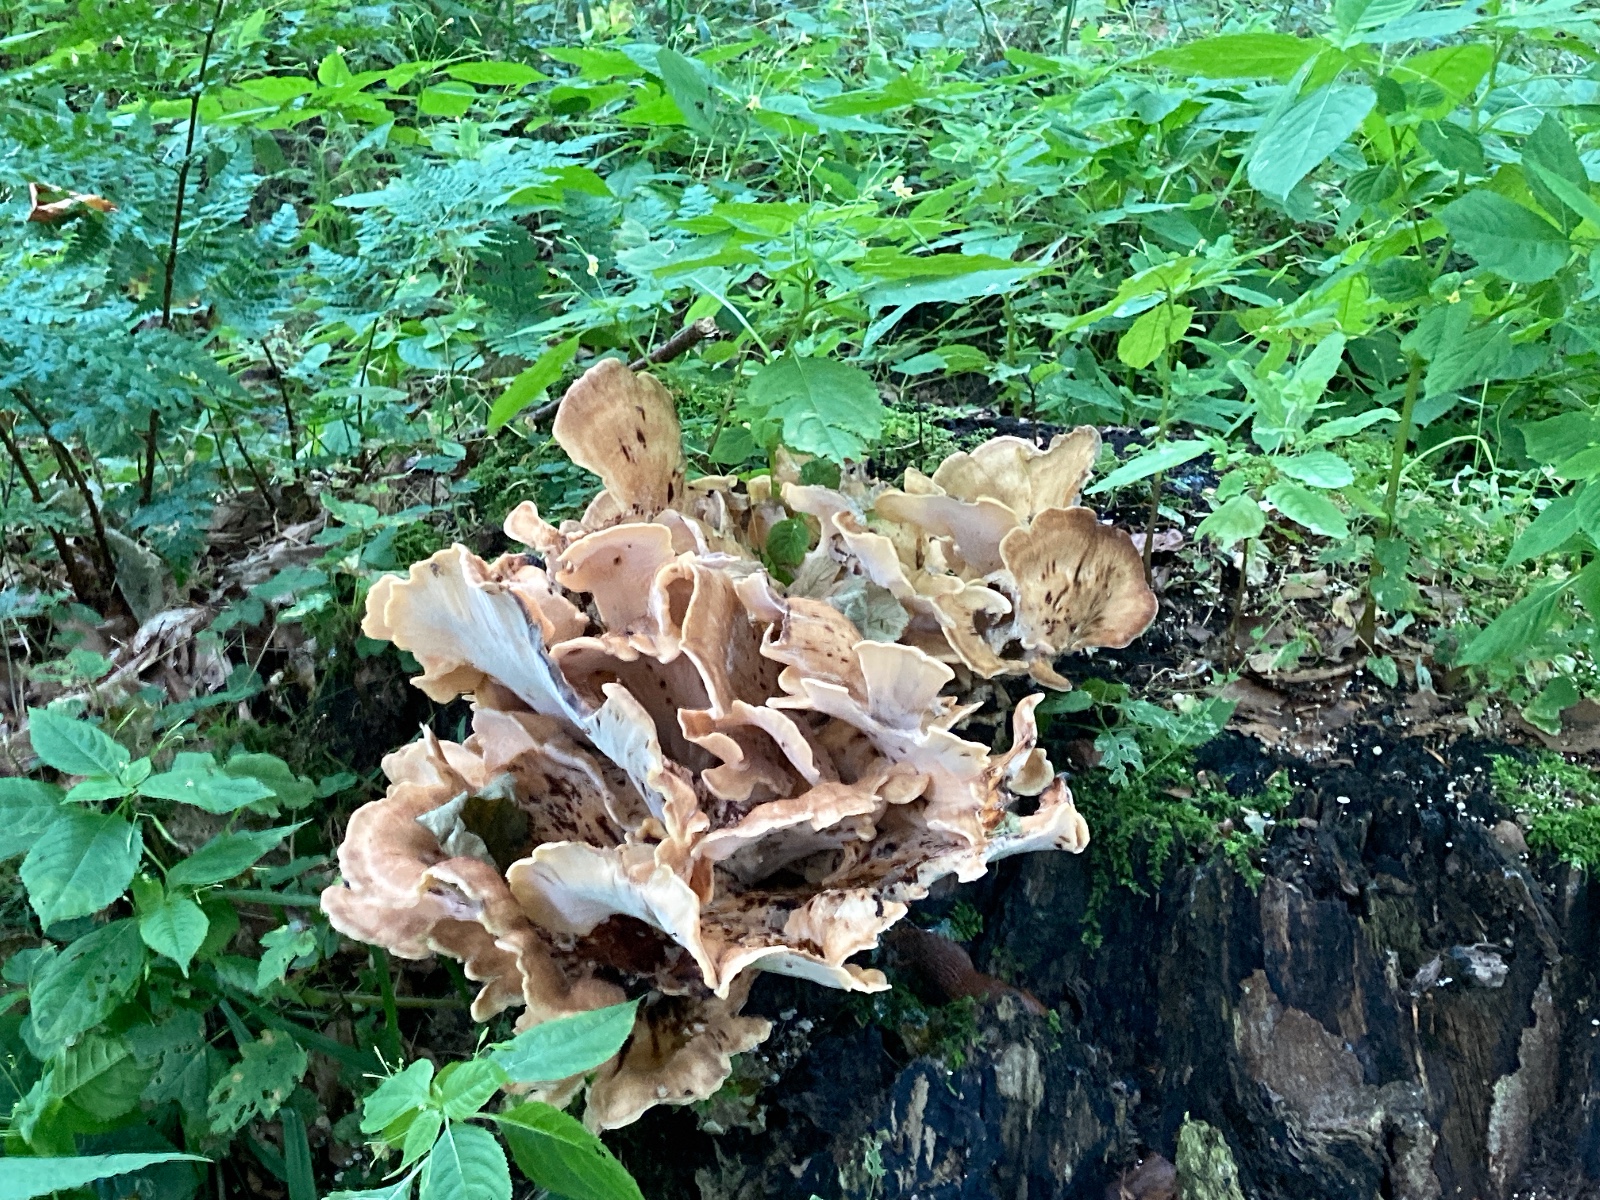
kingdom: Fungi
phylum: Basidiomycota
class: Agaricomycetes
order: Polyporales
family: Meripilaceae
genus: Meripilus
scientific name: Meripilus giganteus
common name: kæmpeporesvamp
